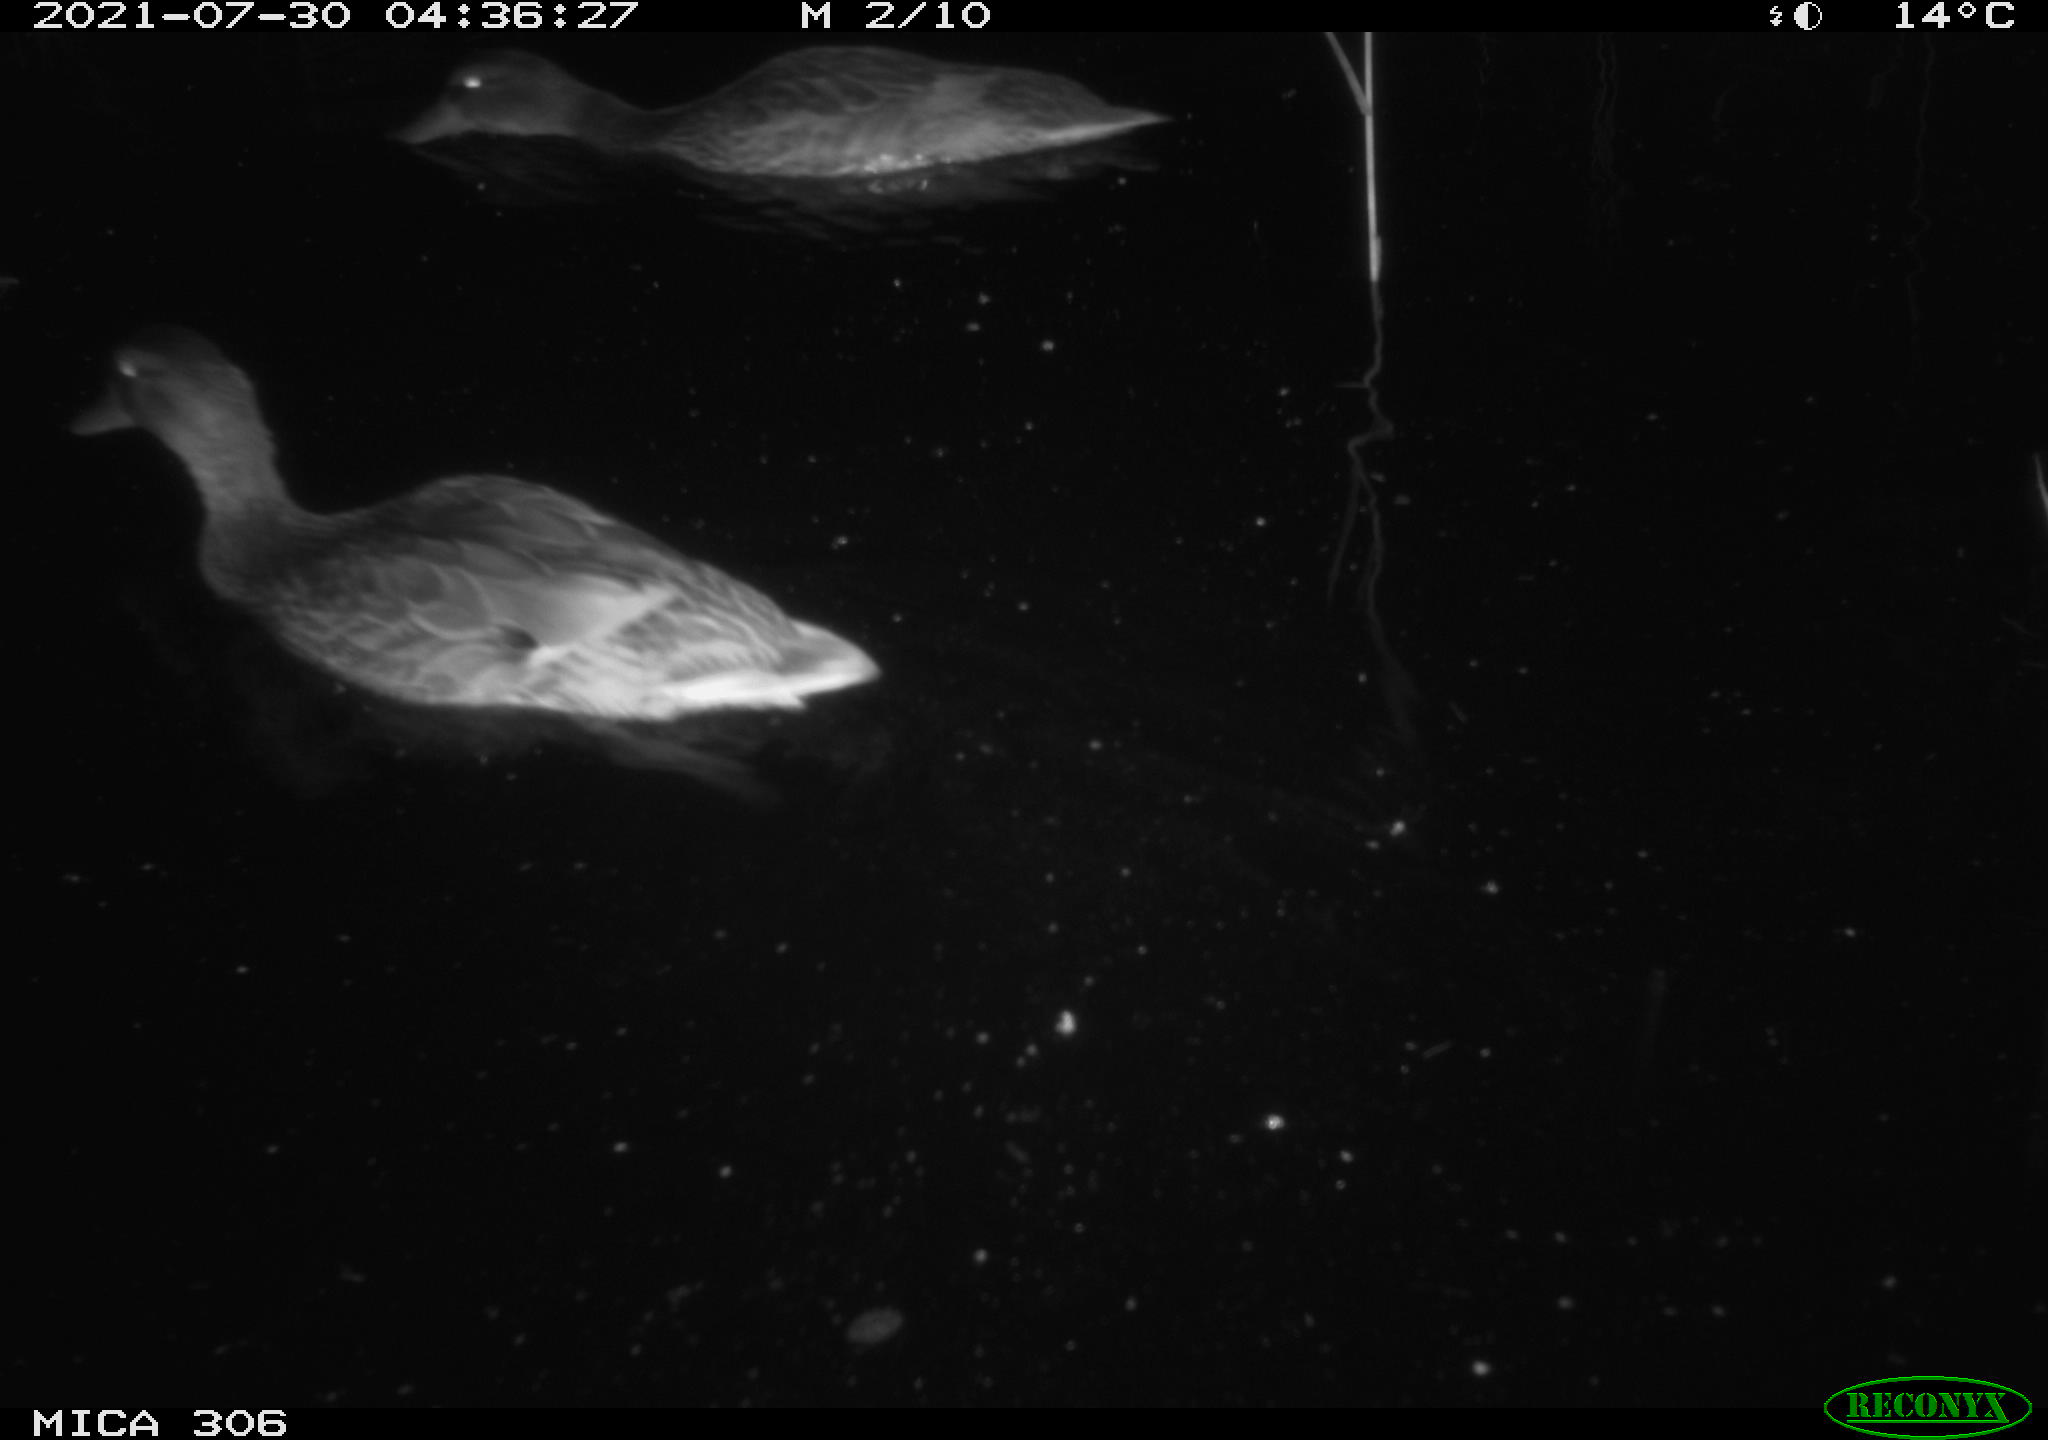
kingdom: Animalia
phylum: Chordata
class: Aves
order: Anseriformes
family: Anatidae
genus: Anas
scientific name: Anas platyrhynchos
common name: Mallard
